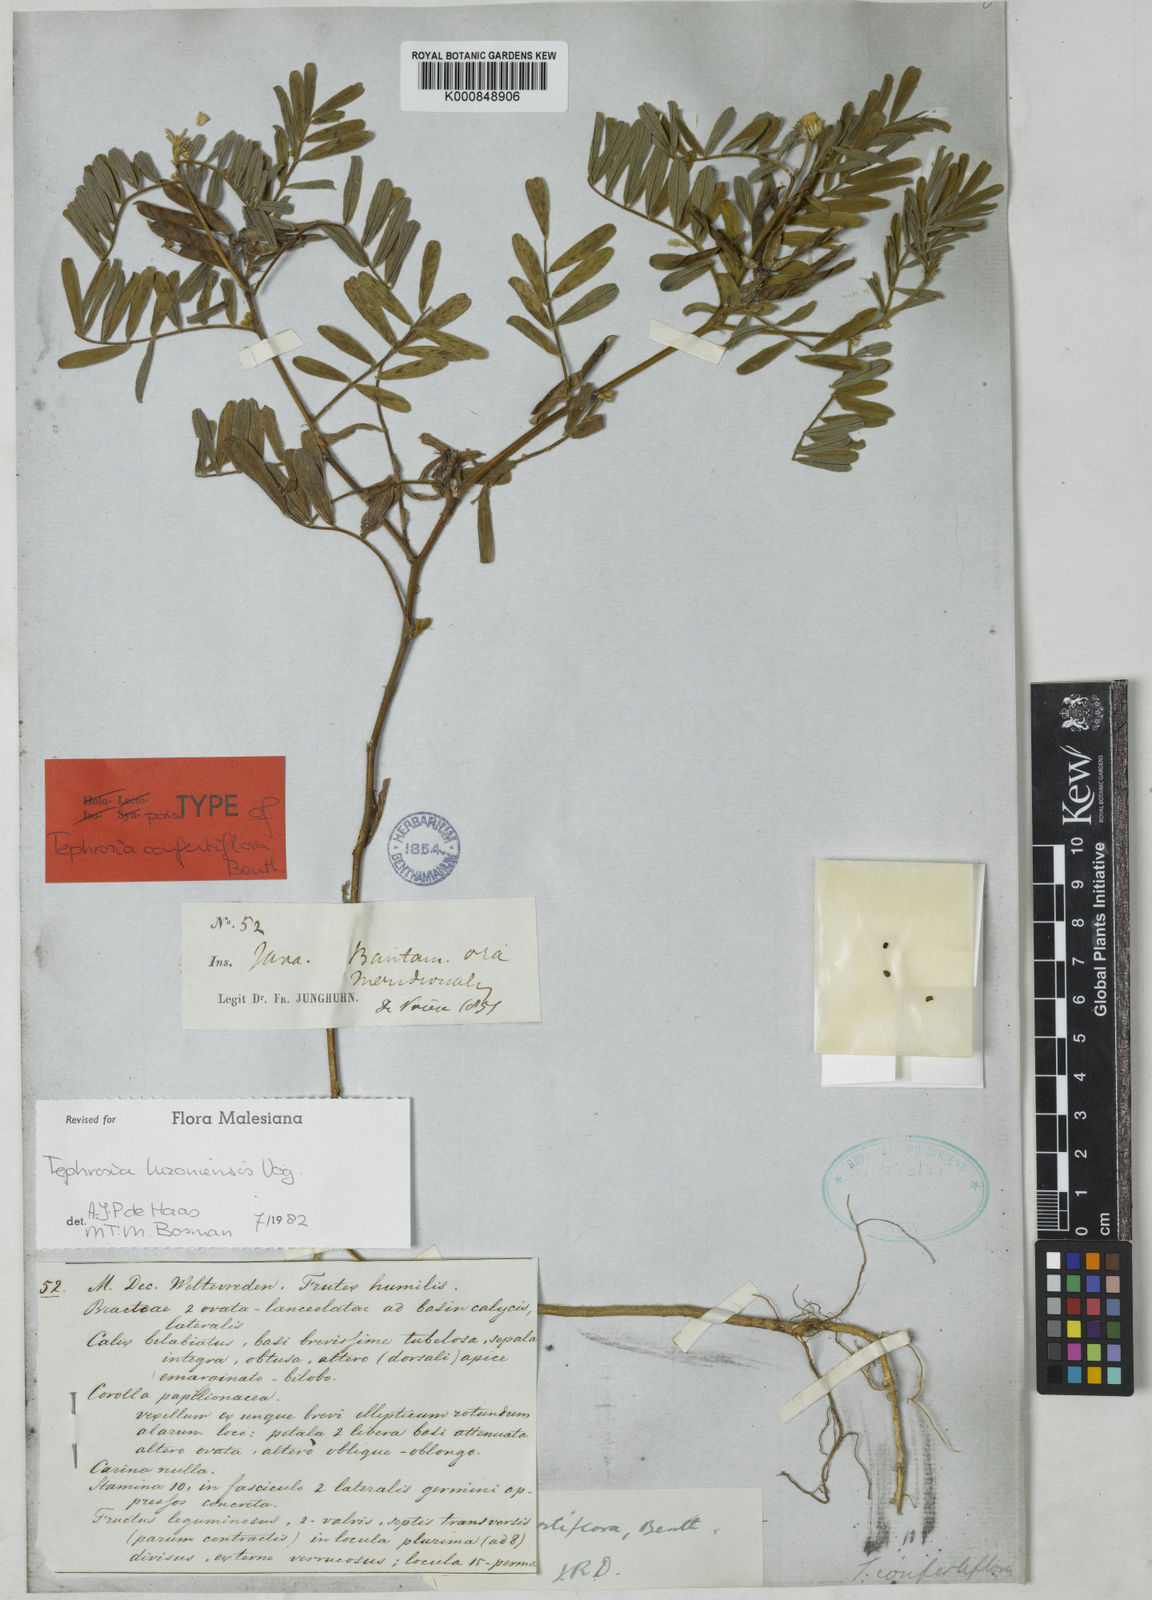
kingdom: Plantae
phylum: Tracheophyta
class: Magnoliopsida
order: Fabales
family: Fabaceae
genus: Tephrosia
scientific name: Tephrosia
